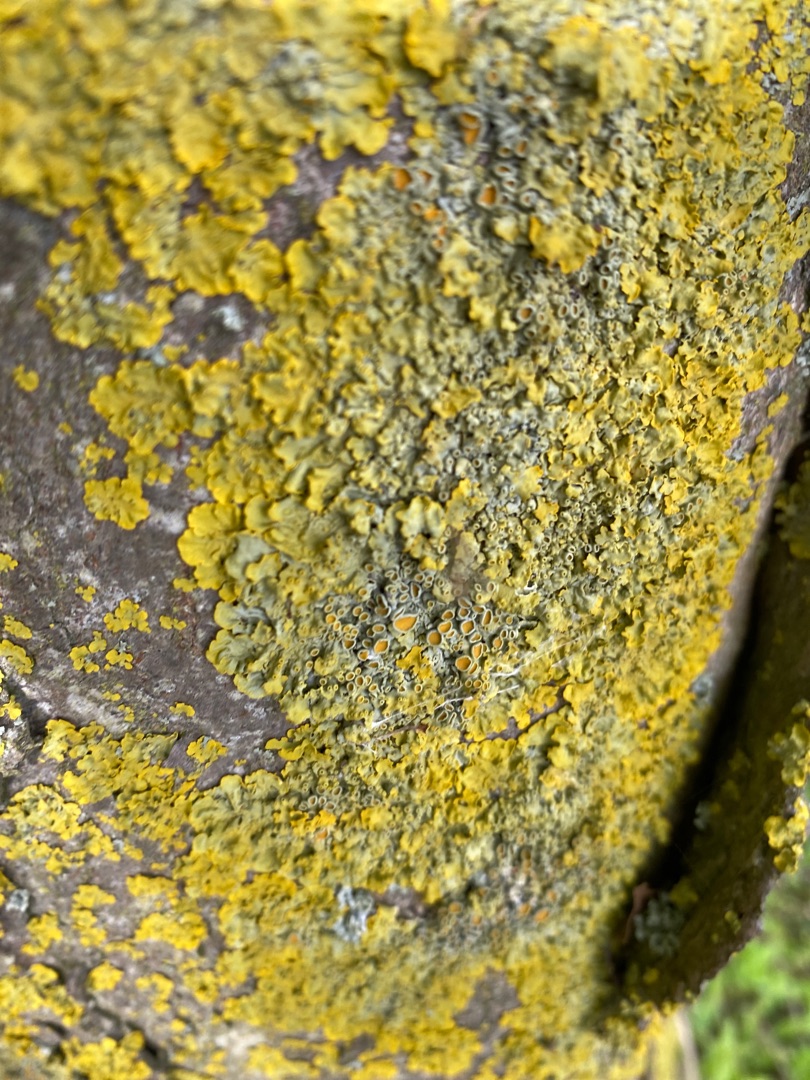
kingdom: Fungi
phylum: Ascomycota
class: Lecanoromycetes
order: Teloschistales
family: Teloschistaceae
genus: Xanthoria
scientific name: Xanthoria parietina
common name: Almindelig væggelav
